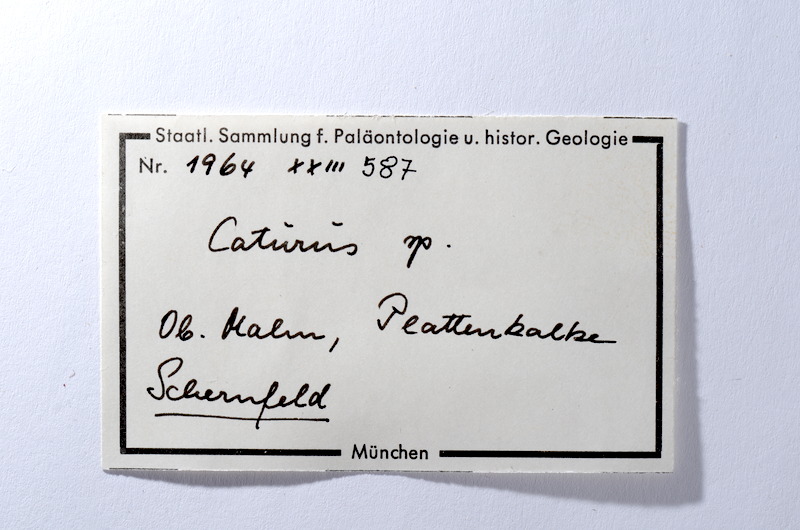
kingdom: Animalia
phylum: Chordata
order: Amiiformes
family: Caturidae
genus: Caturus
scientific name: Caturus
